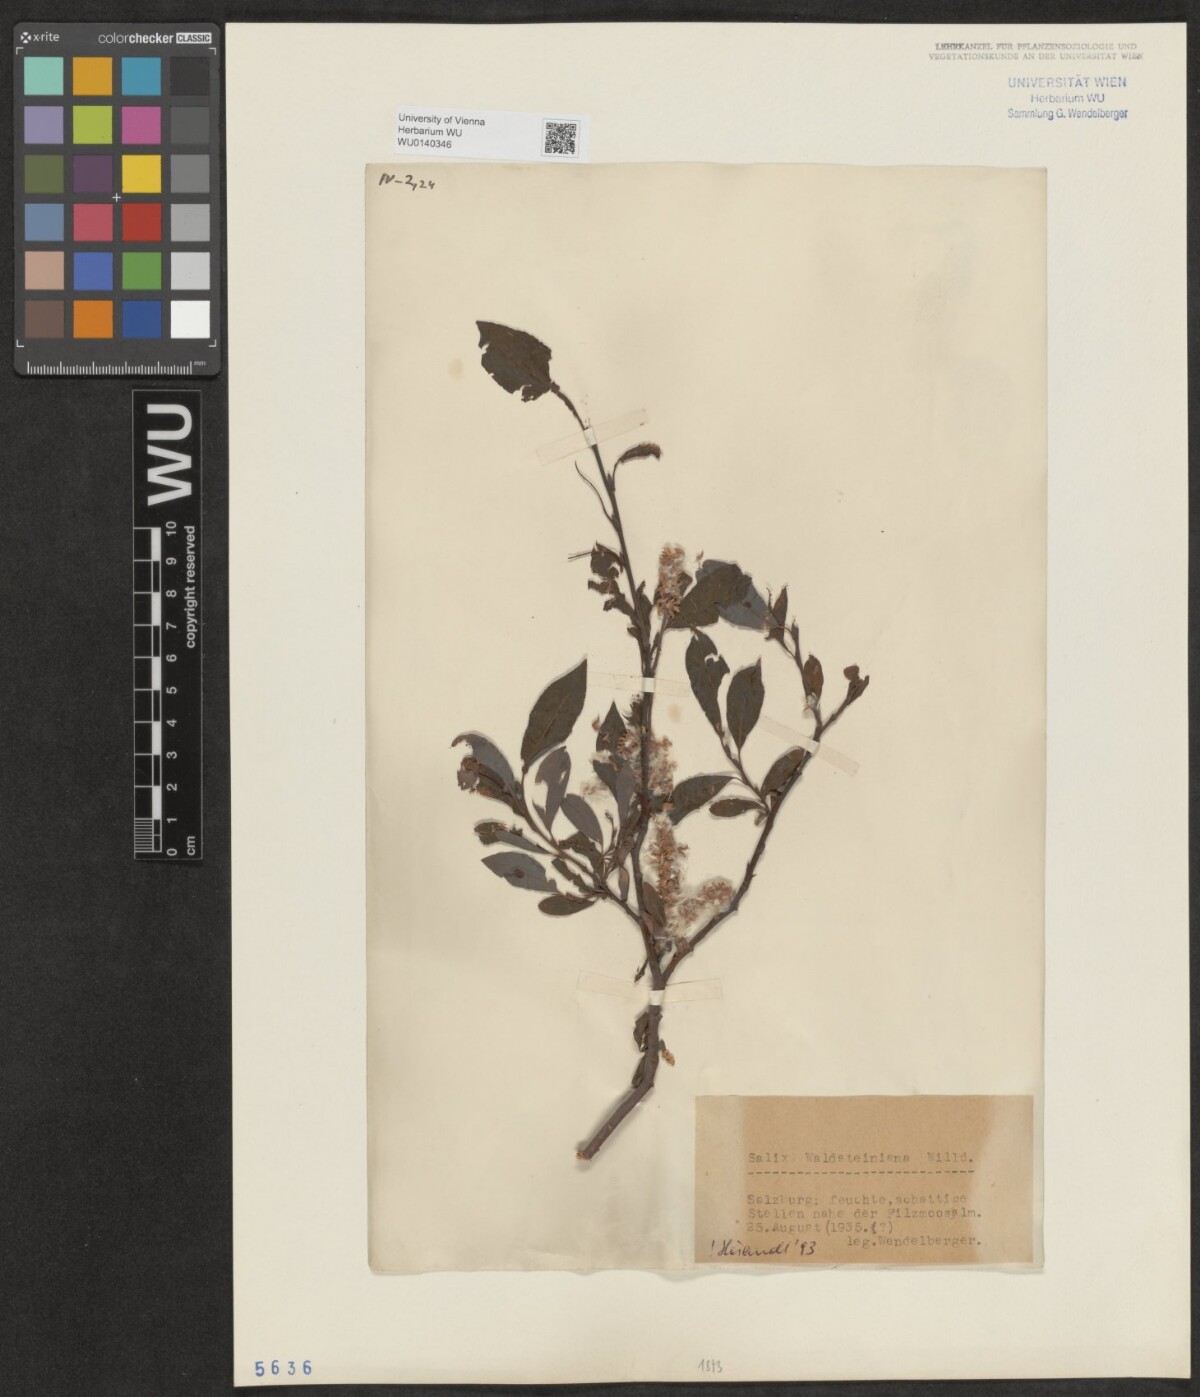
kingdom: Plantae
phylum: Tracheophyta
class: Magnoliopsida
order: Malpighiales
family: Salicaceae
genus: Salix
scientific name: Salix waldsteiniana
